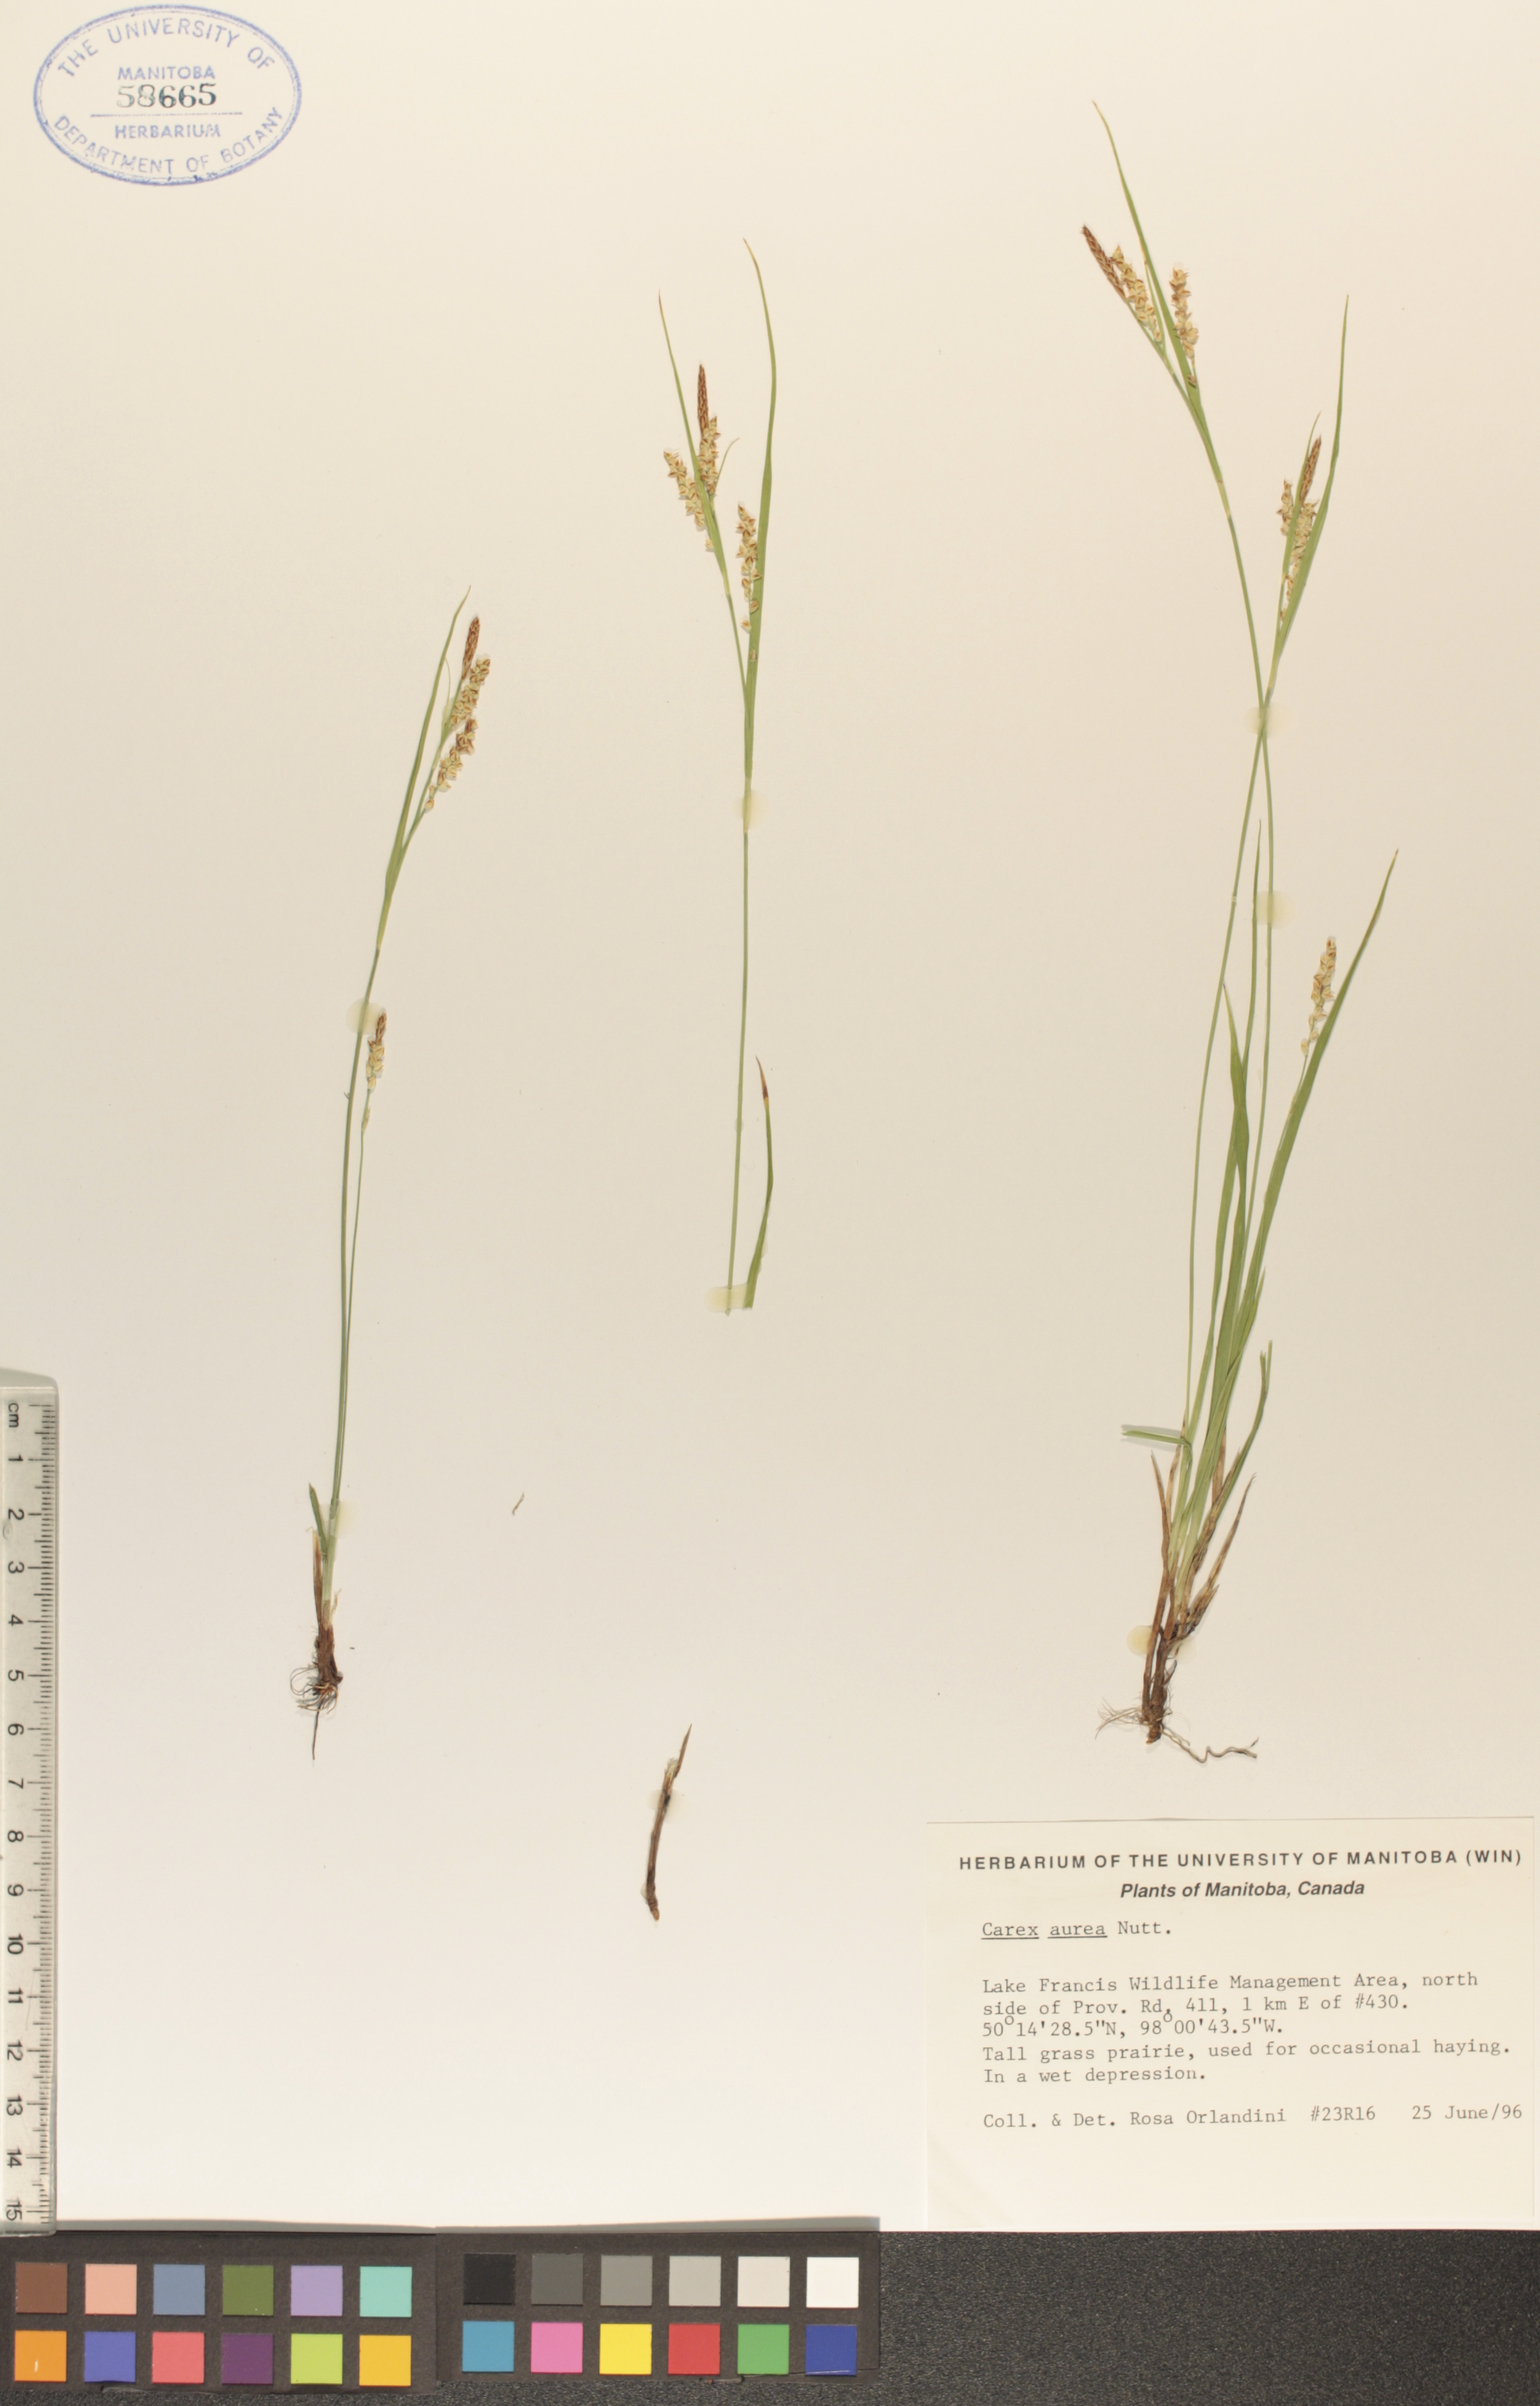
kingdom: Plantae
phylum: Tracheophyta
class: Liliopsida
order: Poales
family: Cyperaceae
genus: Carex
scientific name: Carex aurea
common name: Golden sedge
